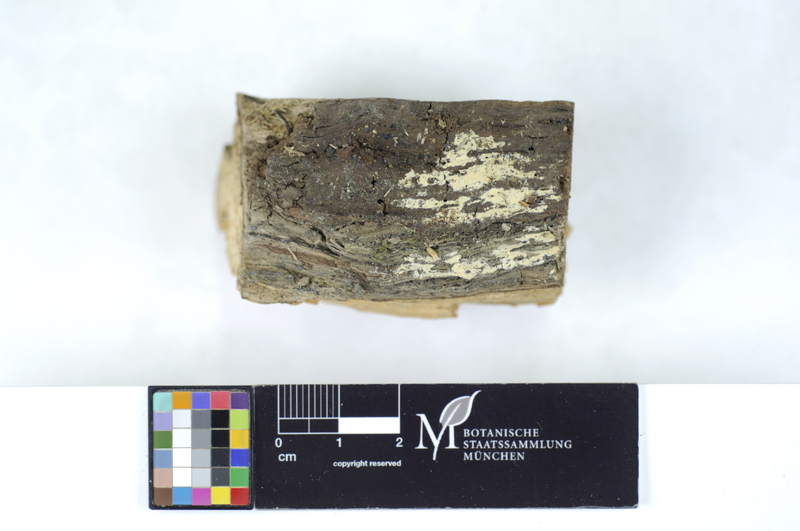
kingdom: Plantae
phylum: Tracheophyta
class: Pinopsida
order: Pinales
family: Pinaceae
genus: Picea
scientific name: Picea
